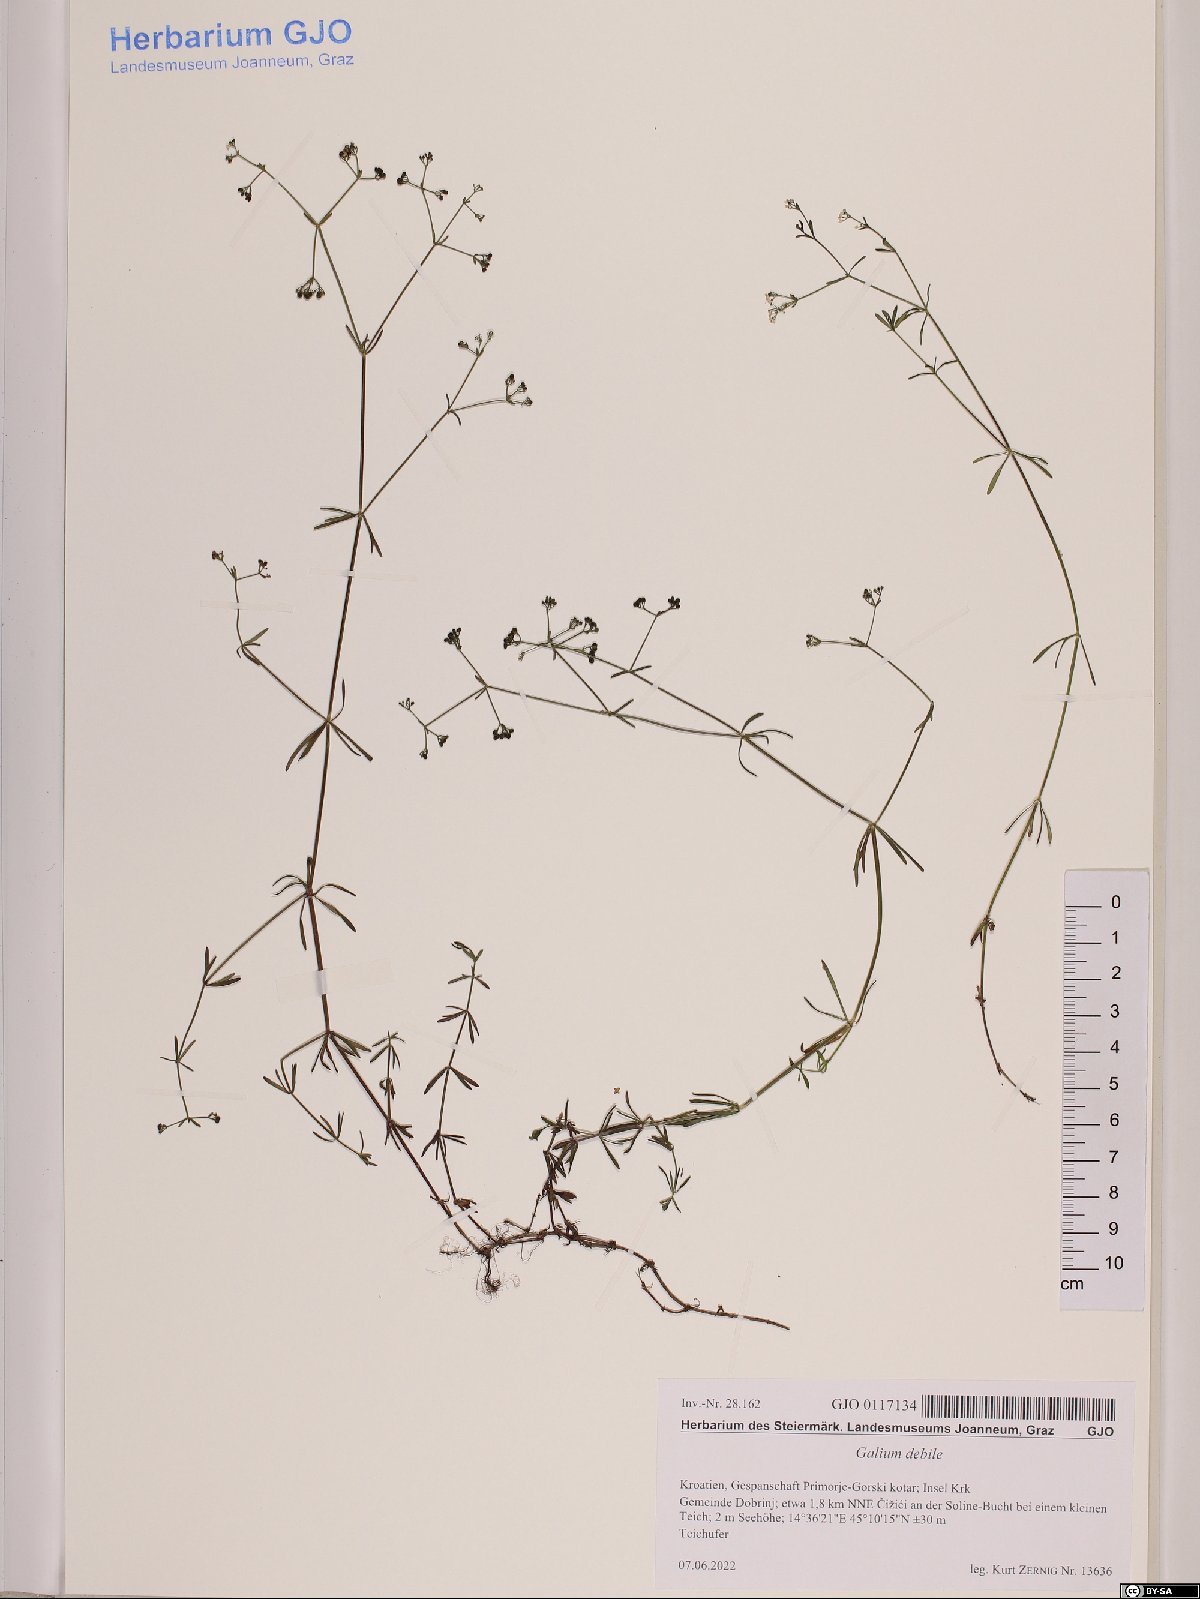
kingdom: Plantae
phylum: Tracheophyta
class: Magnoliopsida
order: Gentianales
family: Rubiaceae
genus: Galium
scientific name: Galium debile
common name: Slender marsh-bedstraw
